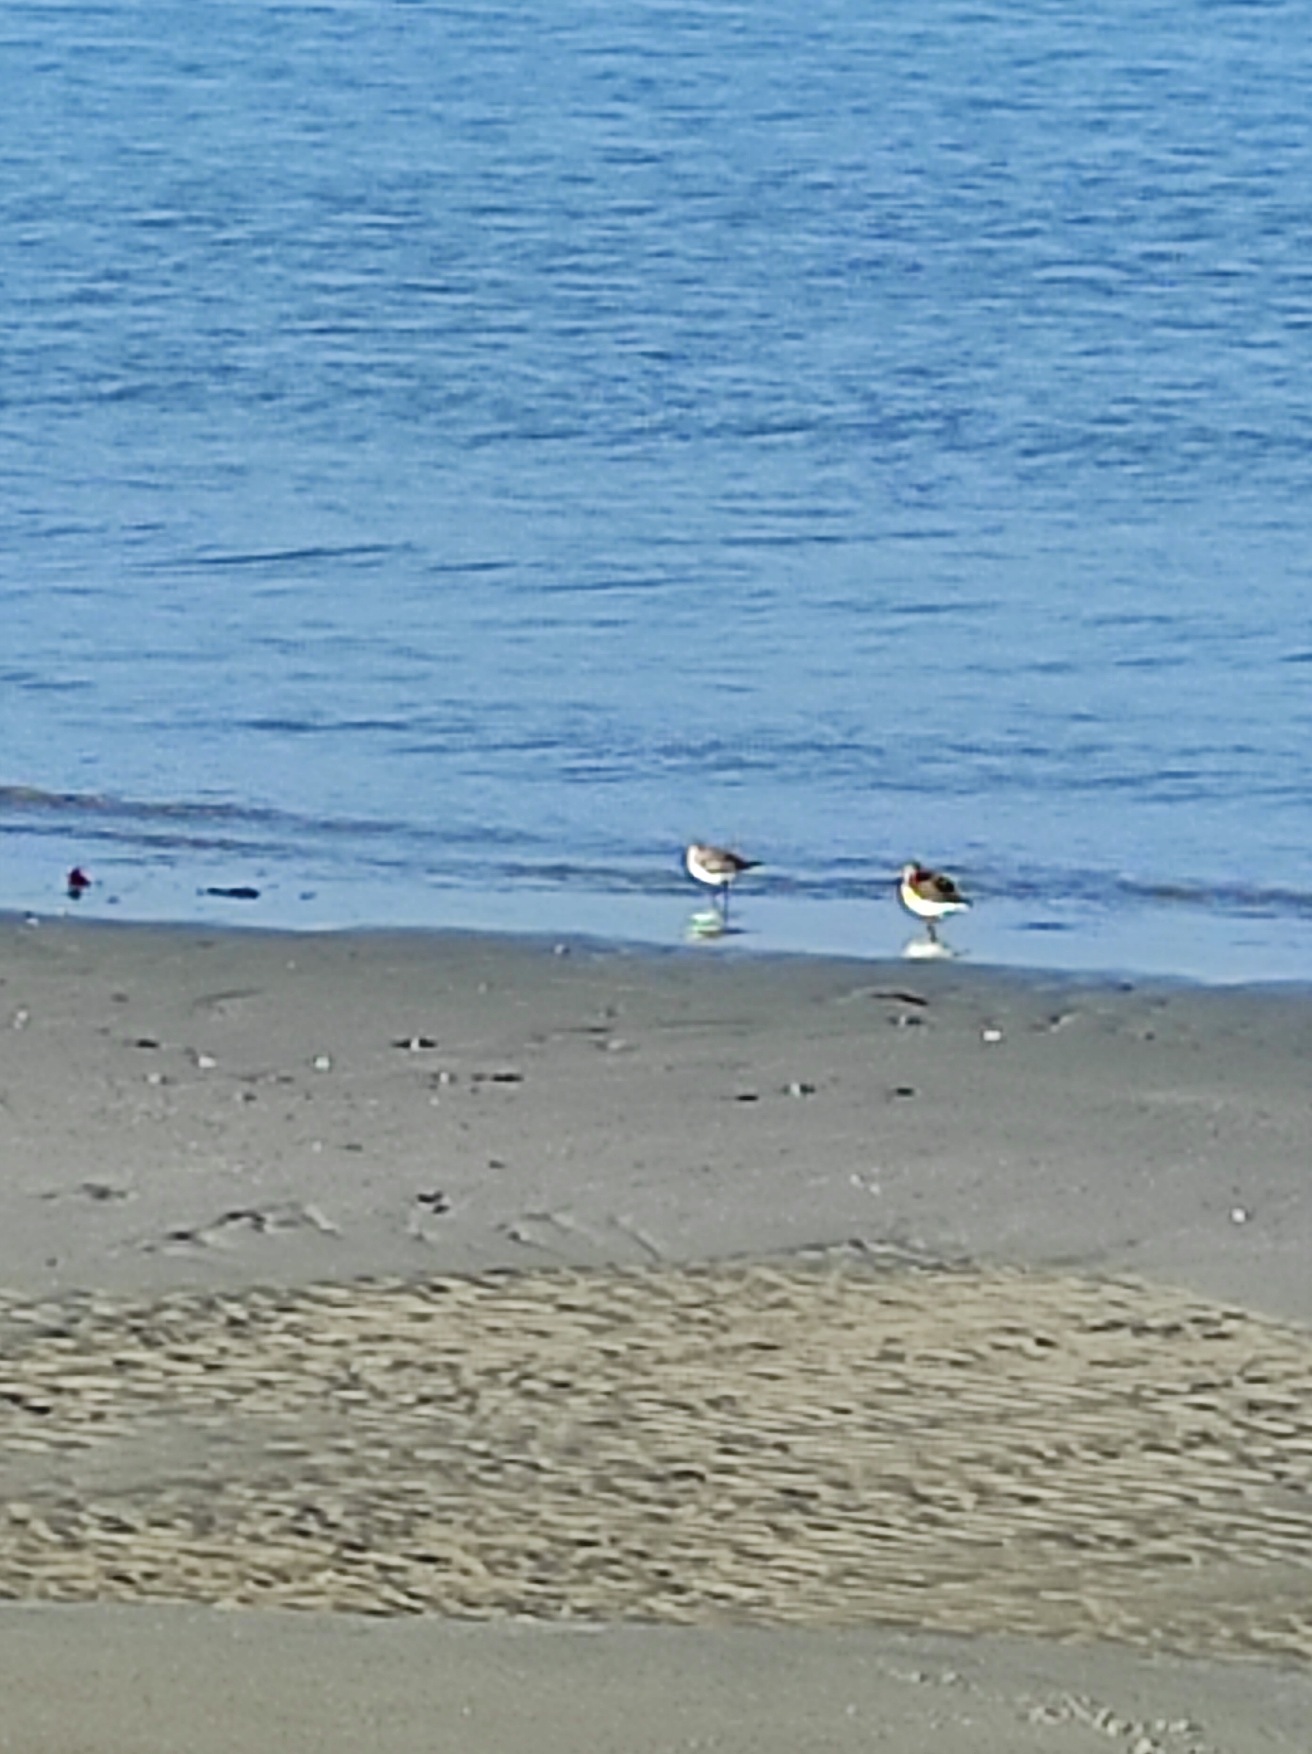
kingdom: Animalia
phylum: Chordata
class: Aves
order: Charadriiformes
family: Scolopacidae
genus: Calidris
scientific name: Calidris alba
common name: Sandløber
